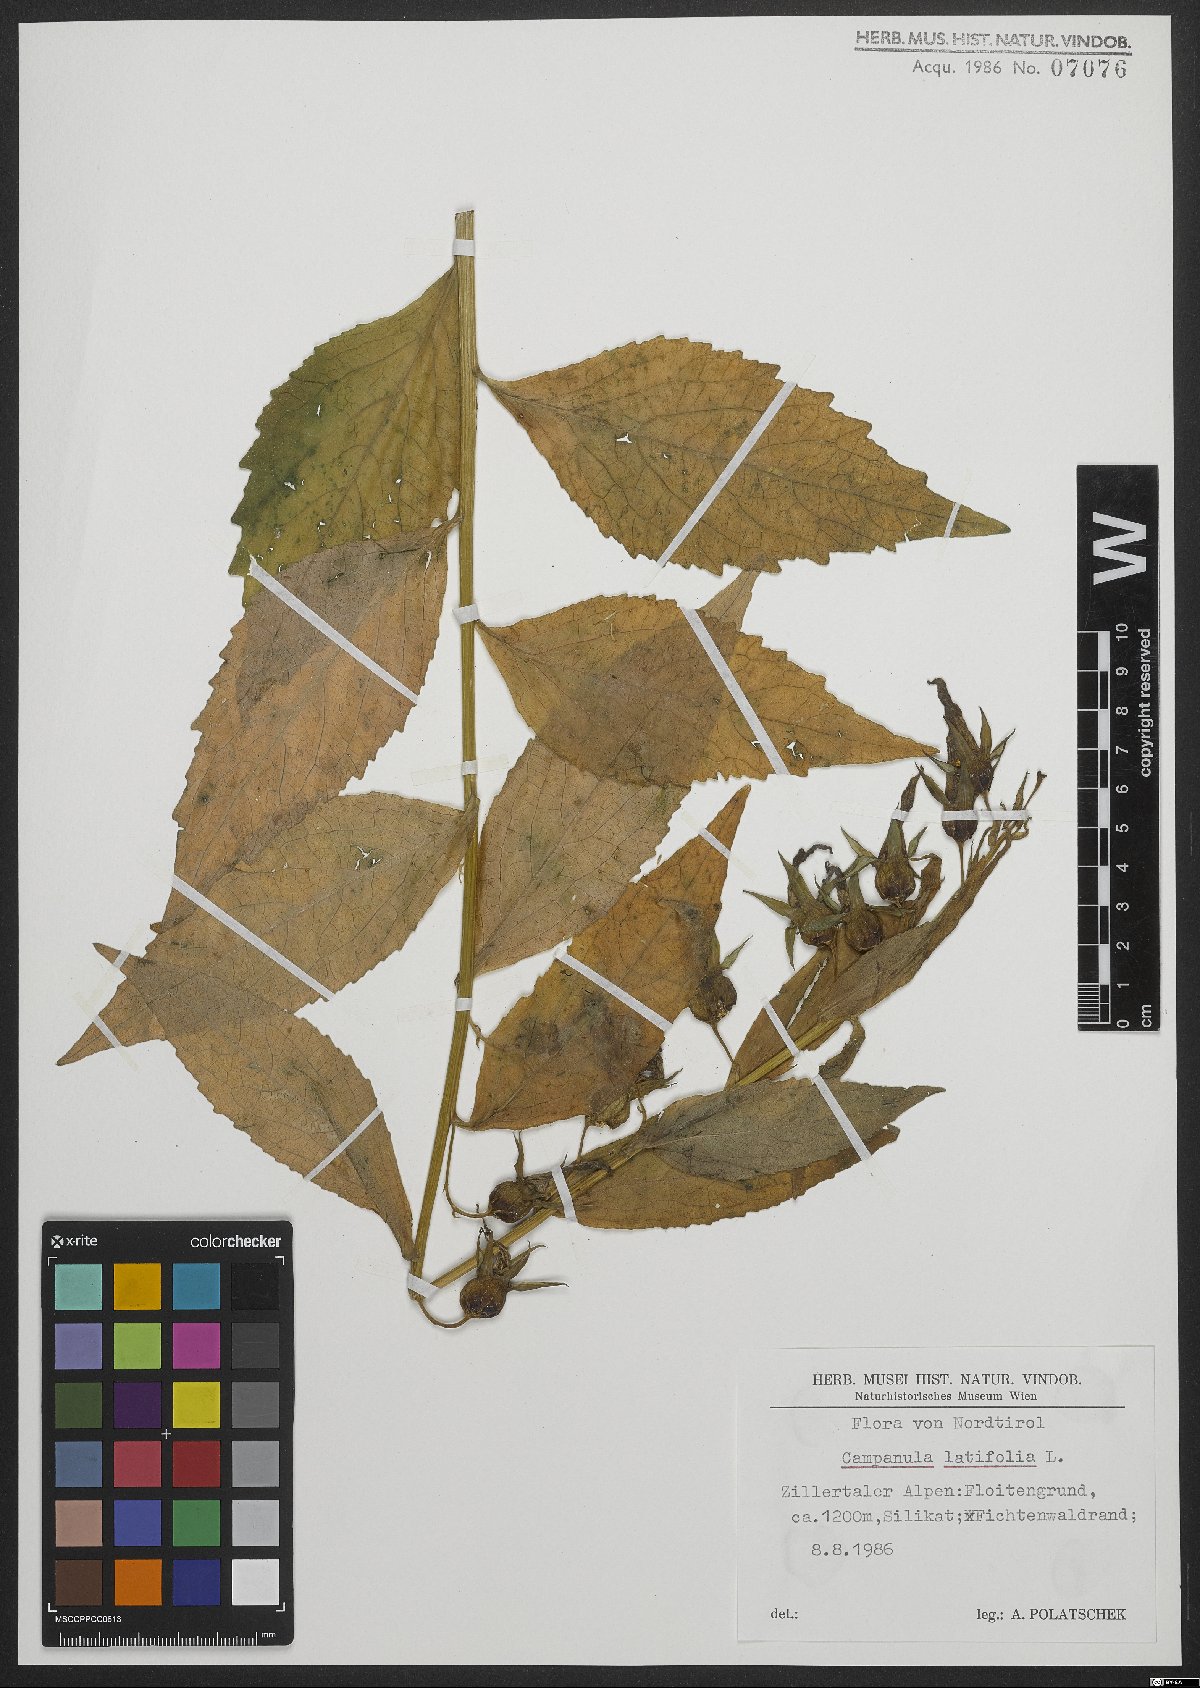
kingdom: Plantae
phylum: Tracheophyta
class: Magnoliopsida
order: Asterales
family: Campanulaceae
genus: Campanula
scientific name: Campanula latifolia
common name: Giant bellflower
